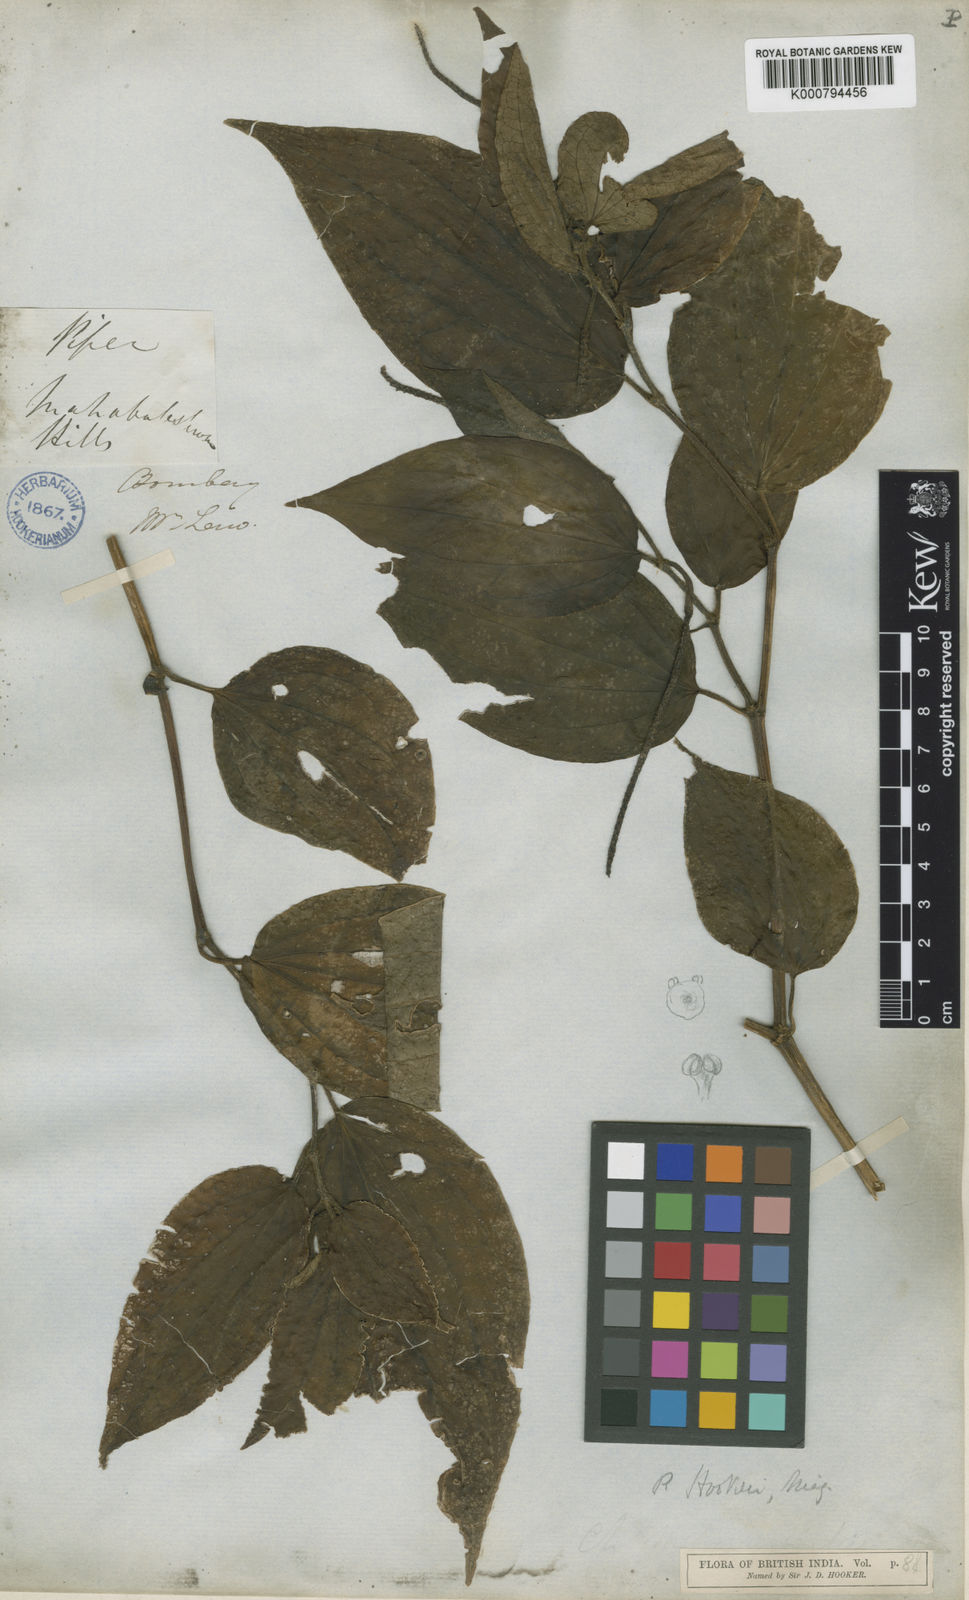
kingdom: Plantae
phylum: Tracheophyta
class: Magnoliopsida
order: Piperales
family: Piperaceae
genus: Piper
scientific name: Piper hookeri
